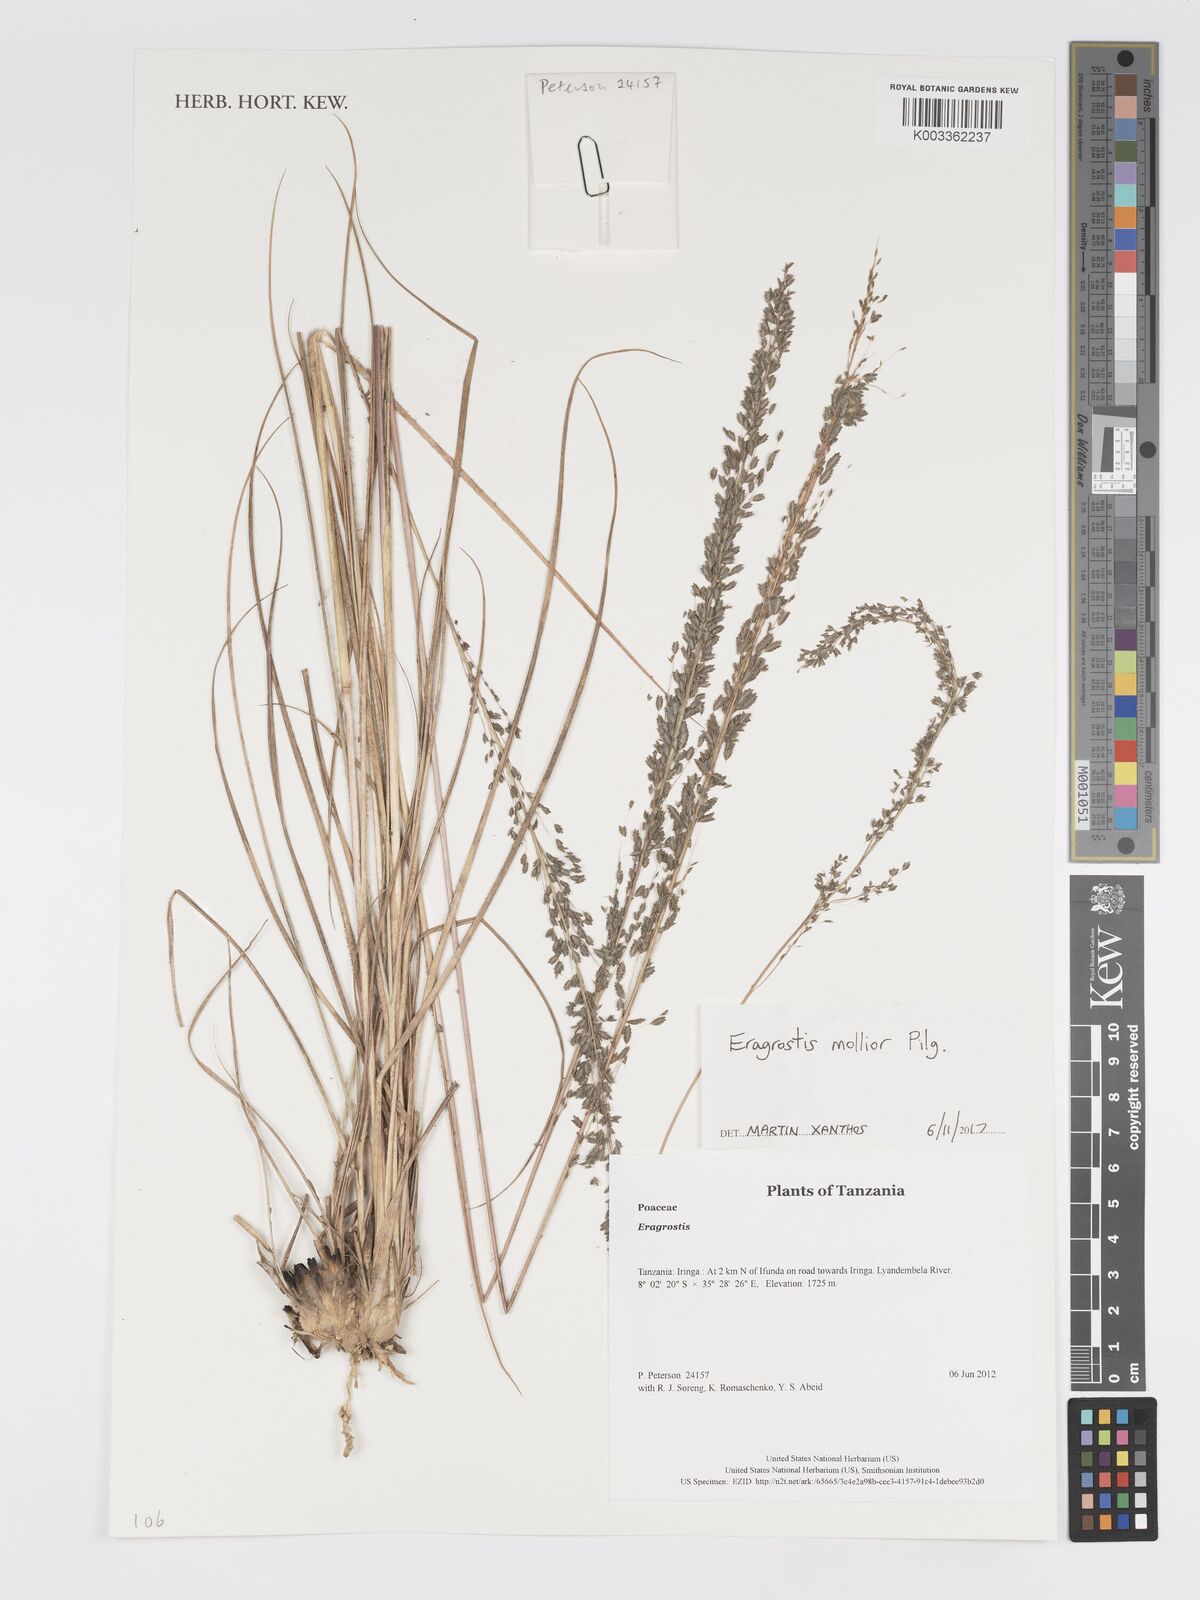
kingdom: Plantae
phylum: Tracheophyta
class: Liliopsida
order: Poales
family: Poaceae
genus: Eragrostis
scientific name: Eragrostis mollior
